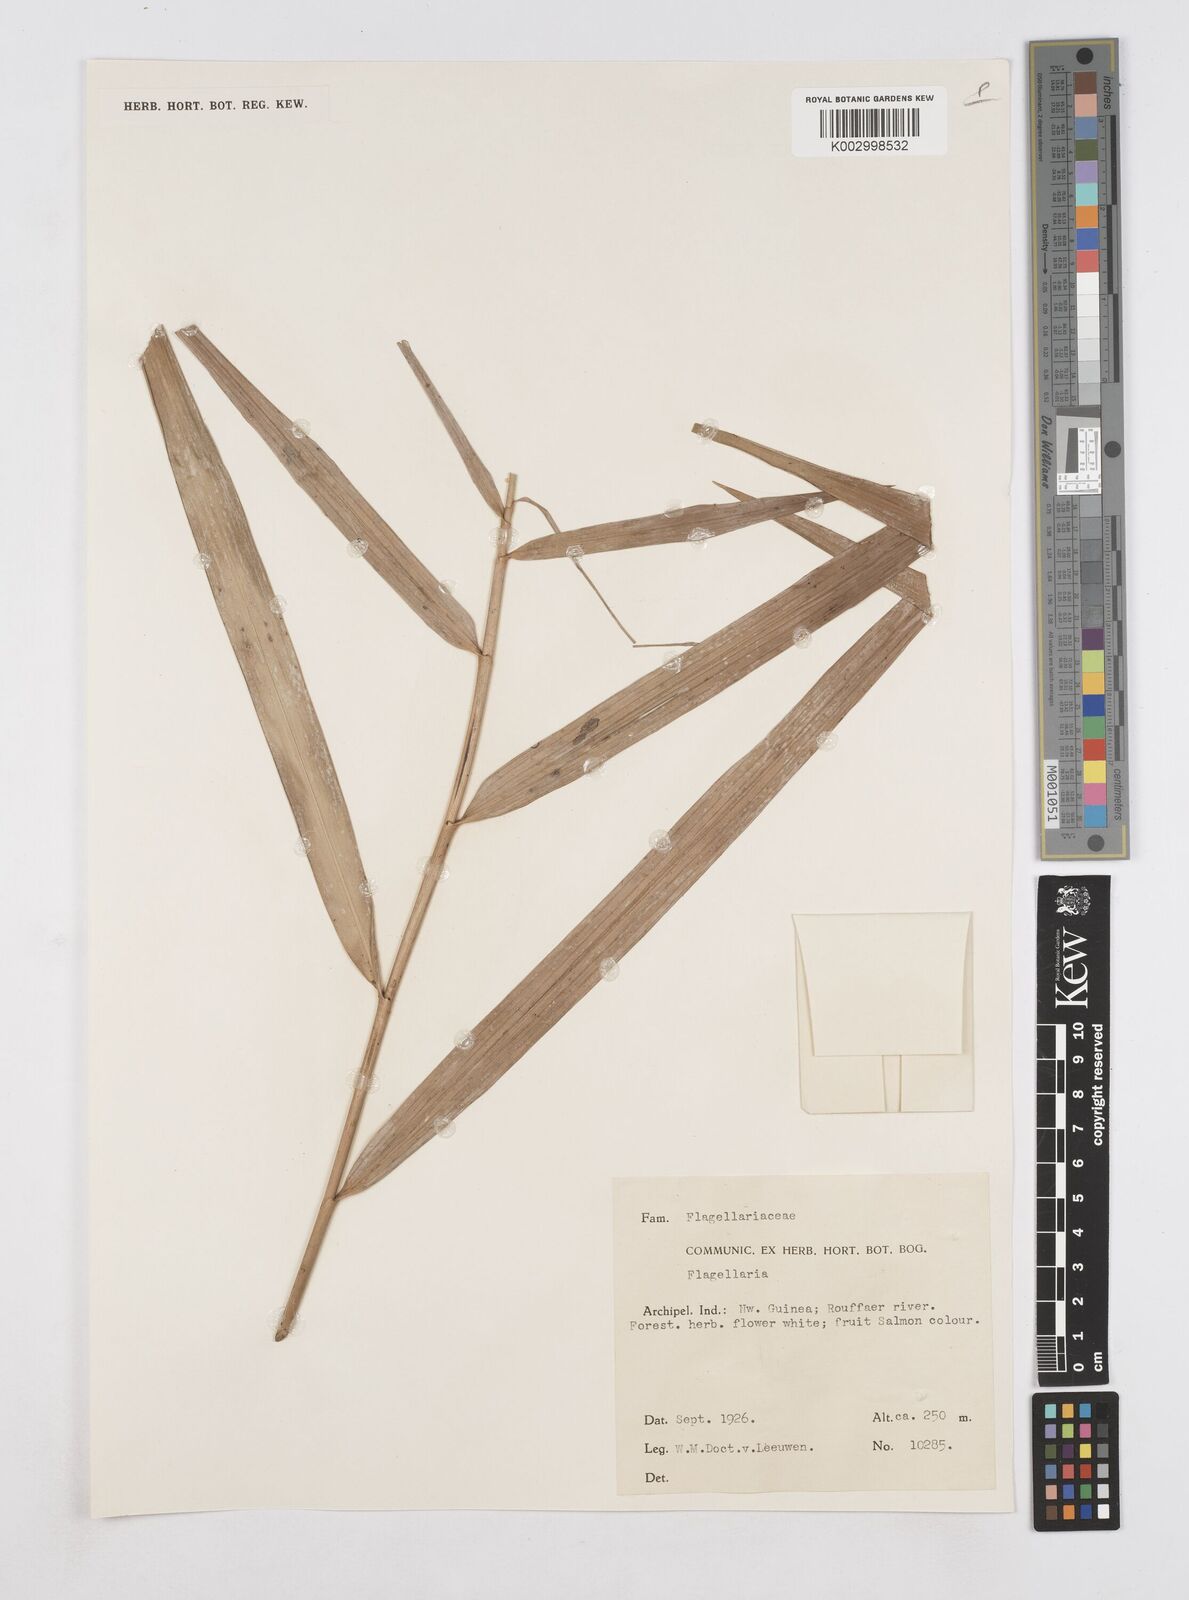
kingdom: Plantae
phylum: Tracheophyta
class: Liliopsida
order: Poales
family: Flagellariaceae
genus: Flagellaria
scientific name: Flagellaria indica
